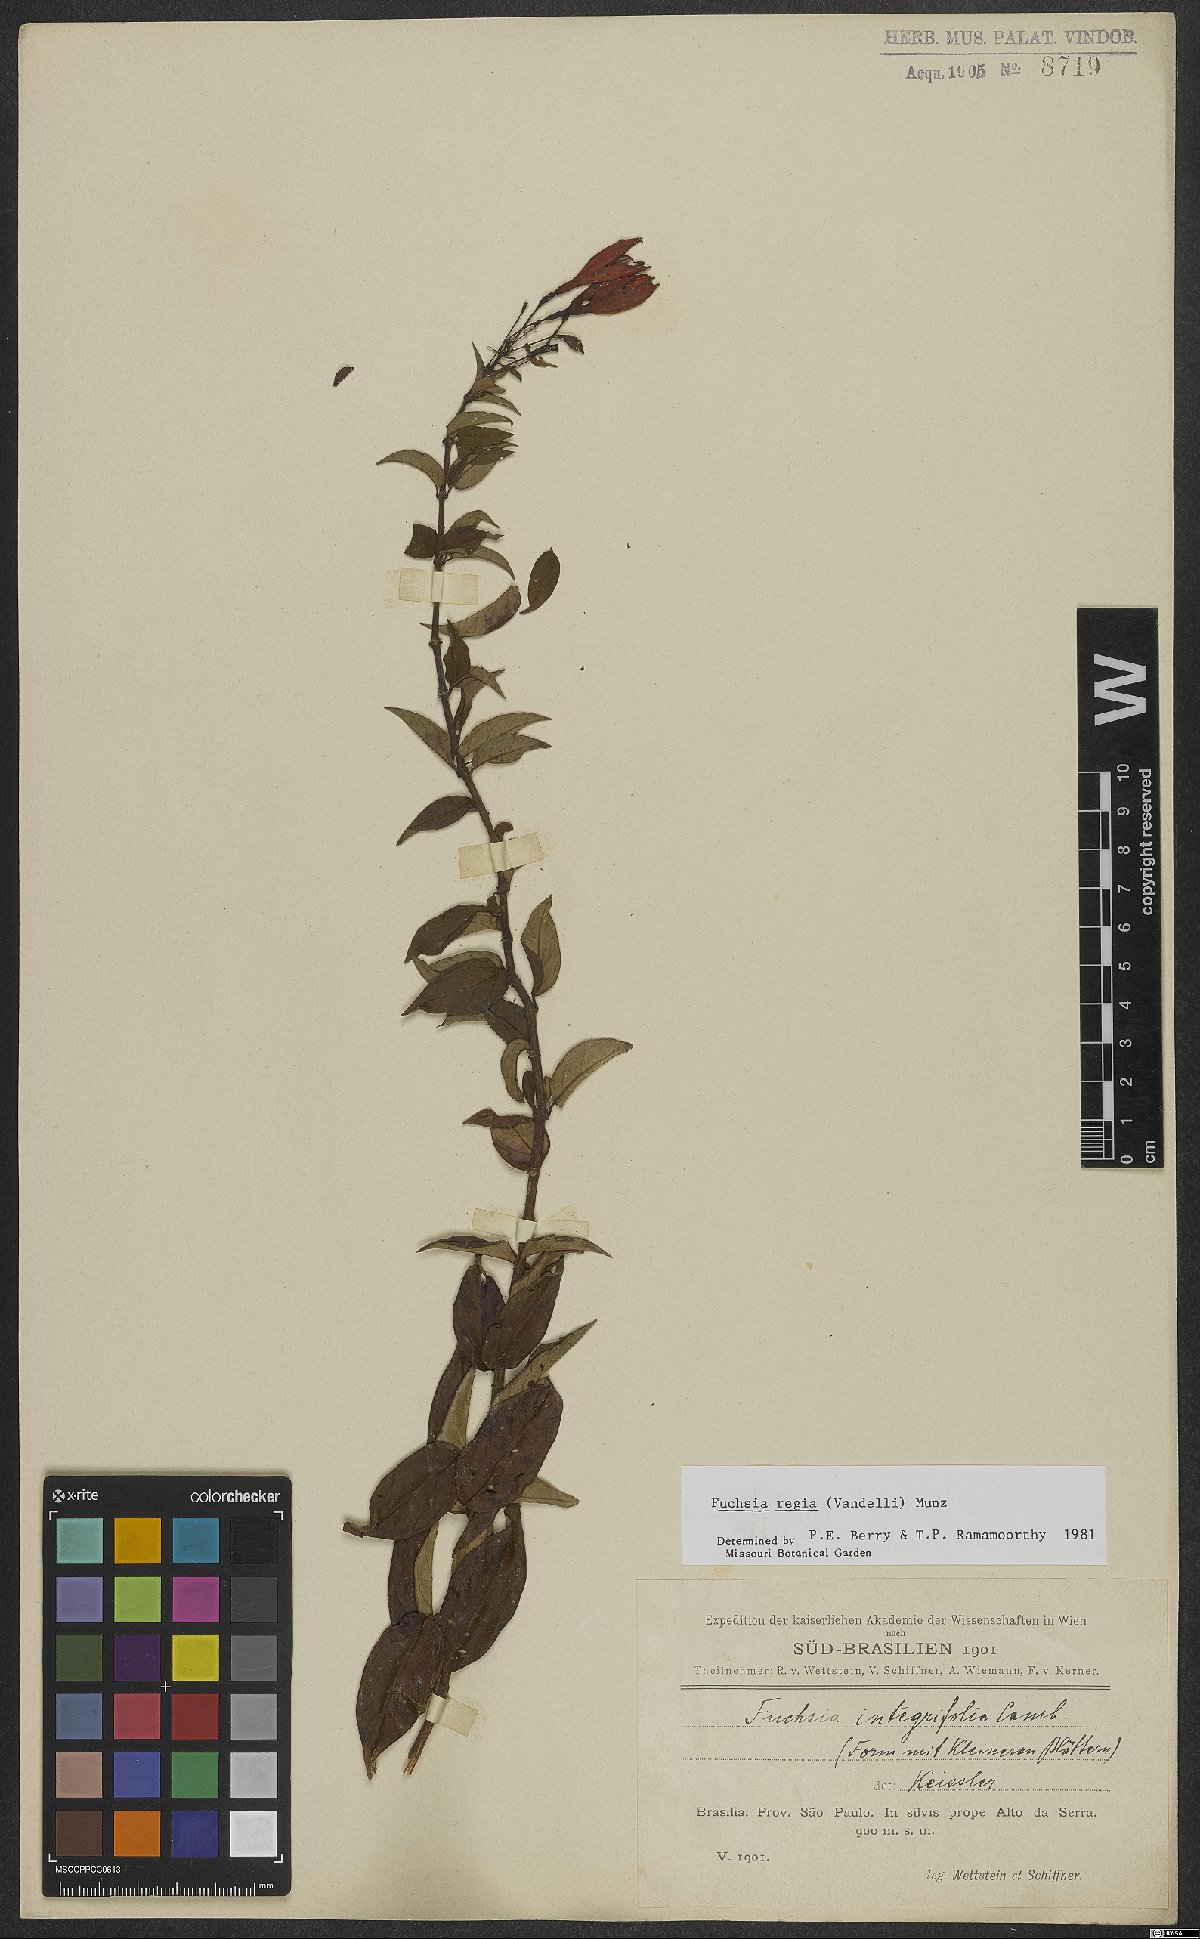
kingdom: Plantae
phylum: Tracheophyta
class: Magnoliopsida
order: Myrtales
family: Onagraceae
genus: Fuchsia
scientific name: Fuchsia regia
